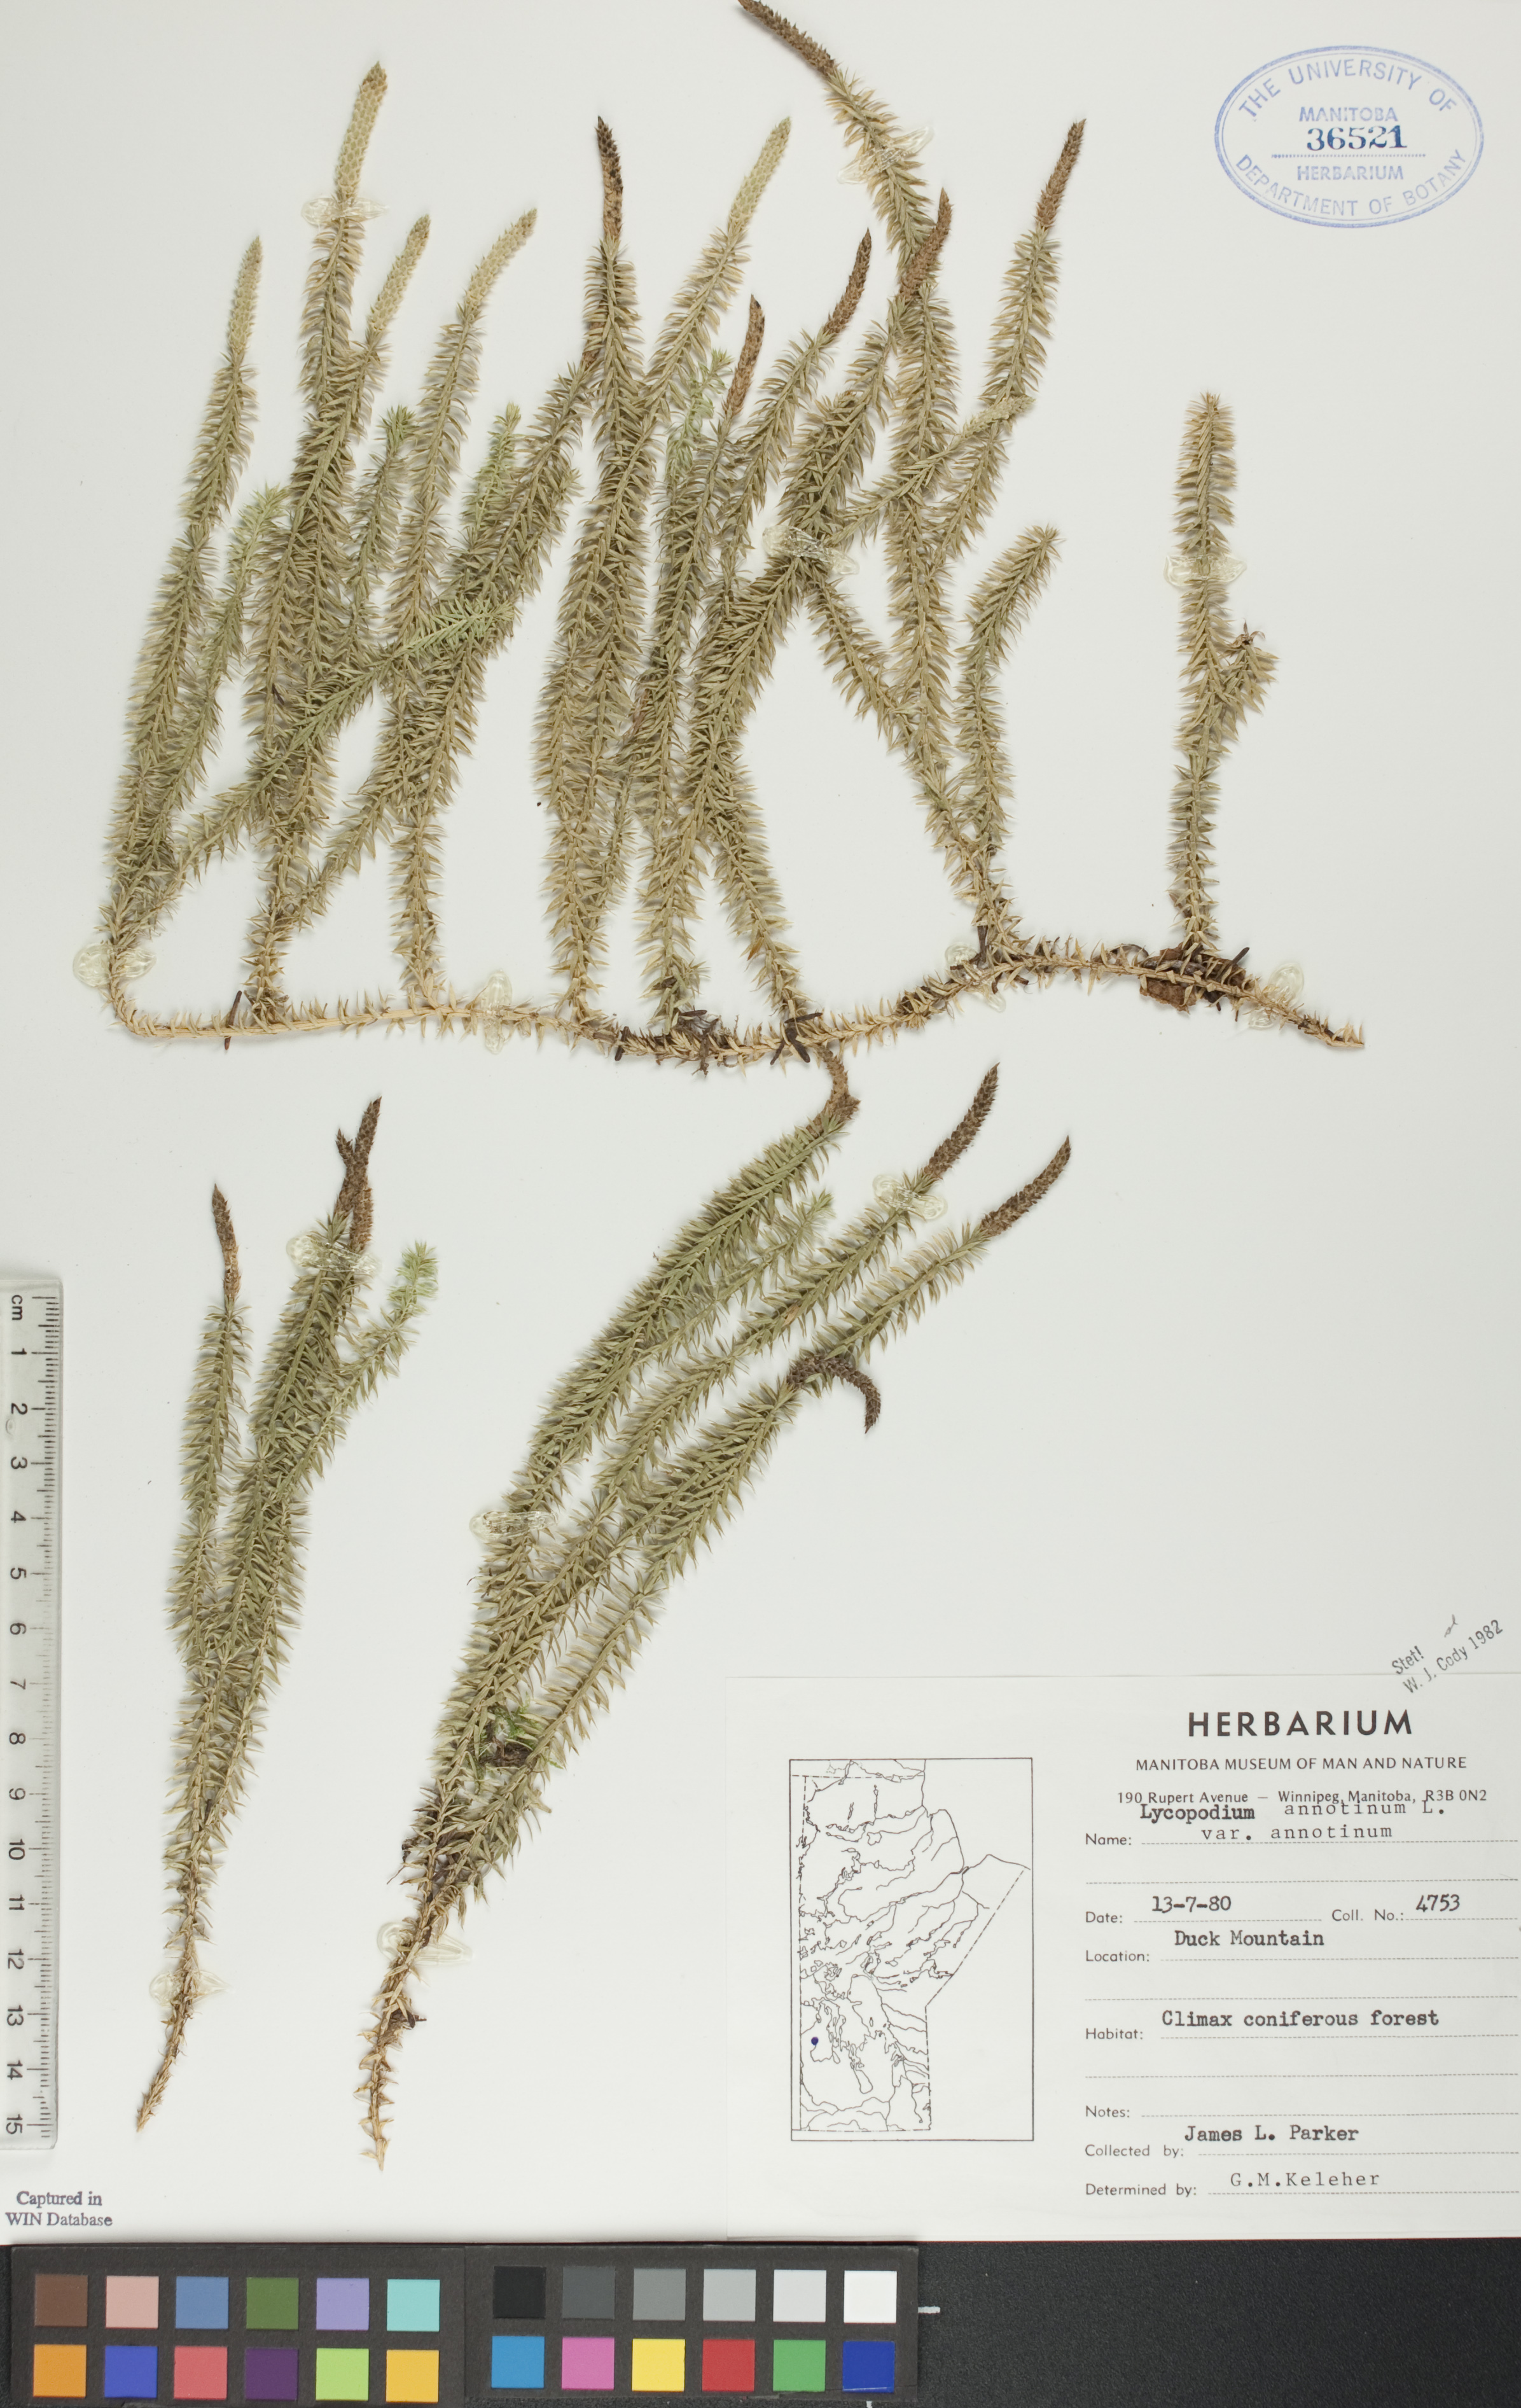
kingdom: Plantae
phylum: Tracheophyta
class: Lycopodiopsida
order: Lycopodiales
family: Lycopodiaceae
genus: Spinulum
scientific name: Spinulum annotinum
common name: Interrupted club-moss
